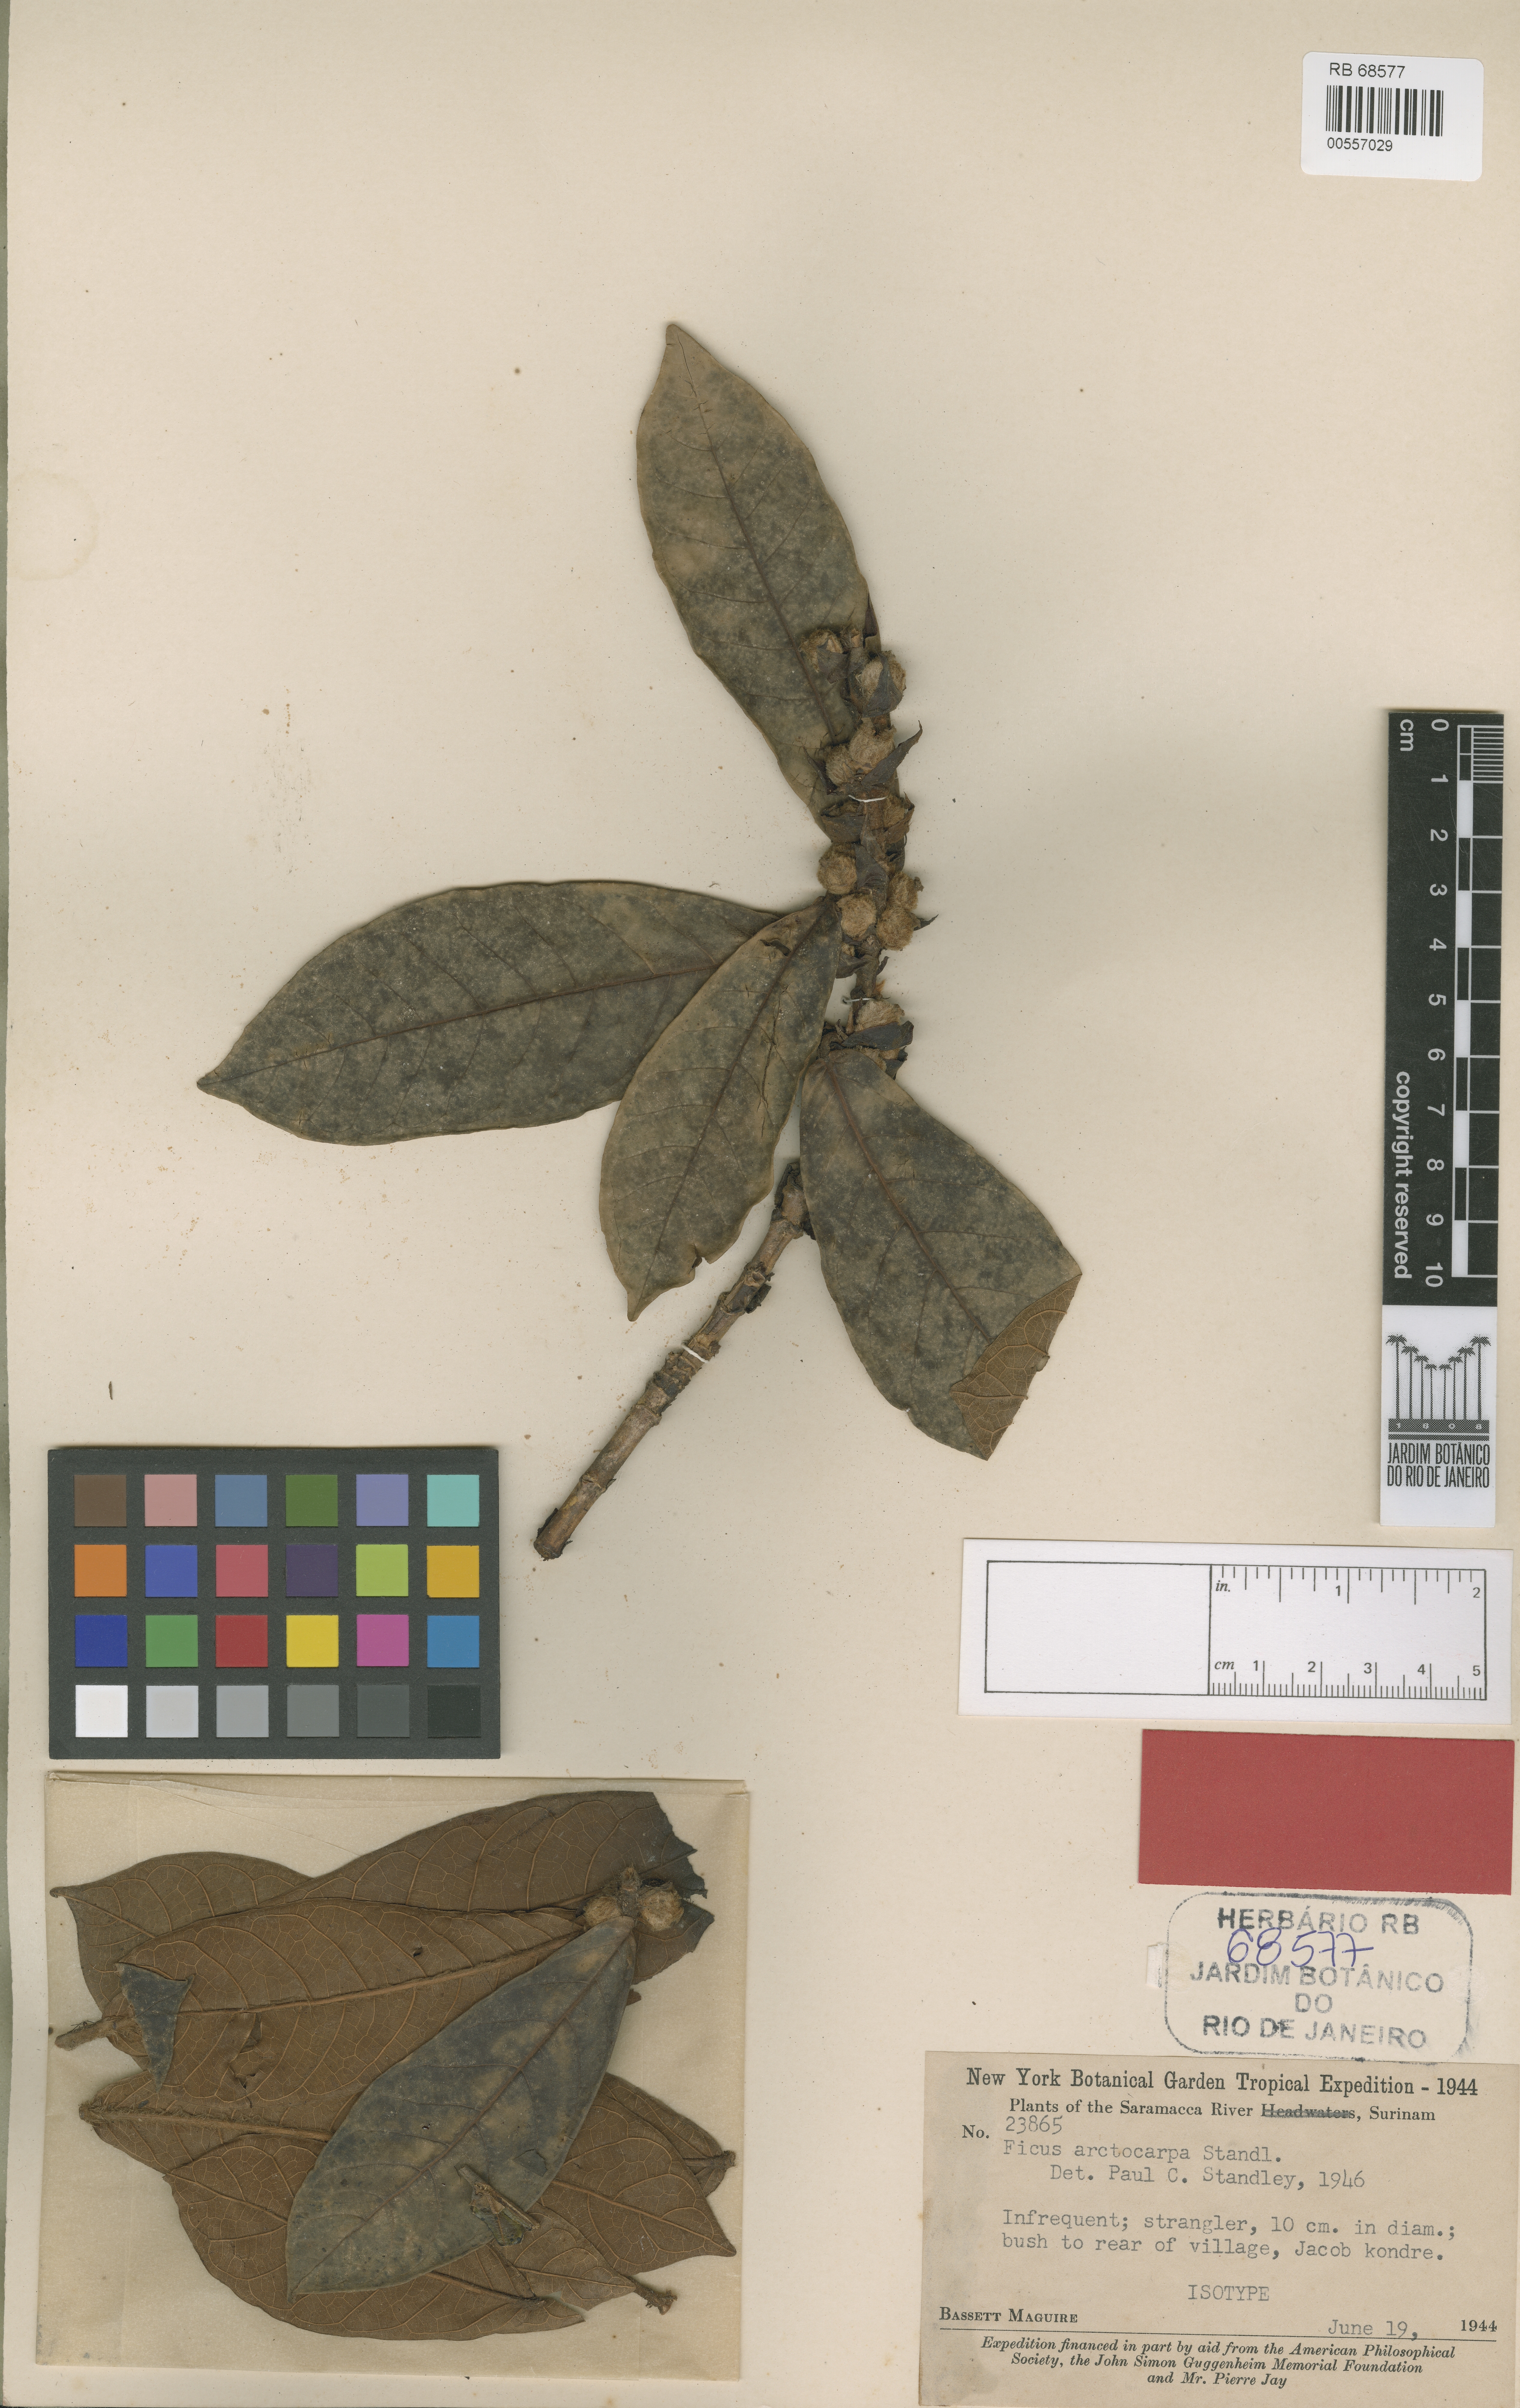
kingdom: Plantae
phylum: Tracheophyta
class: Magnoliopsida
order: Rosales
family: Moraceae
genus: Ficus
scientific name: Ficus panurensis
